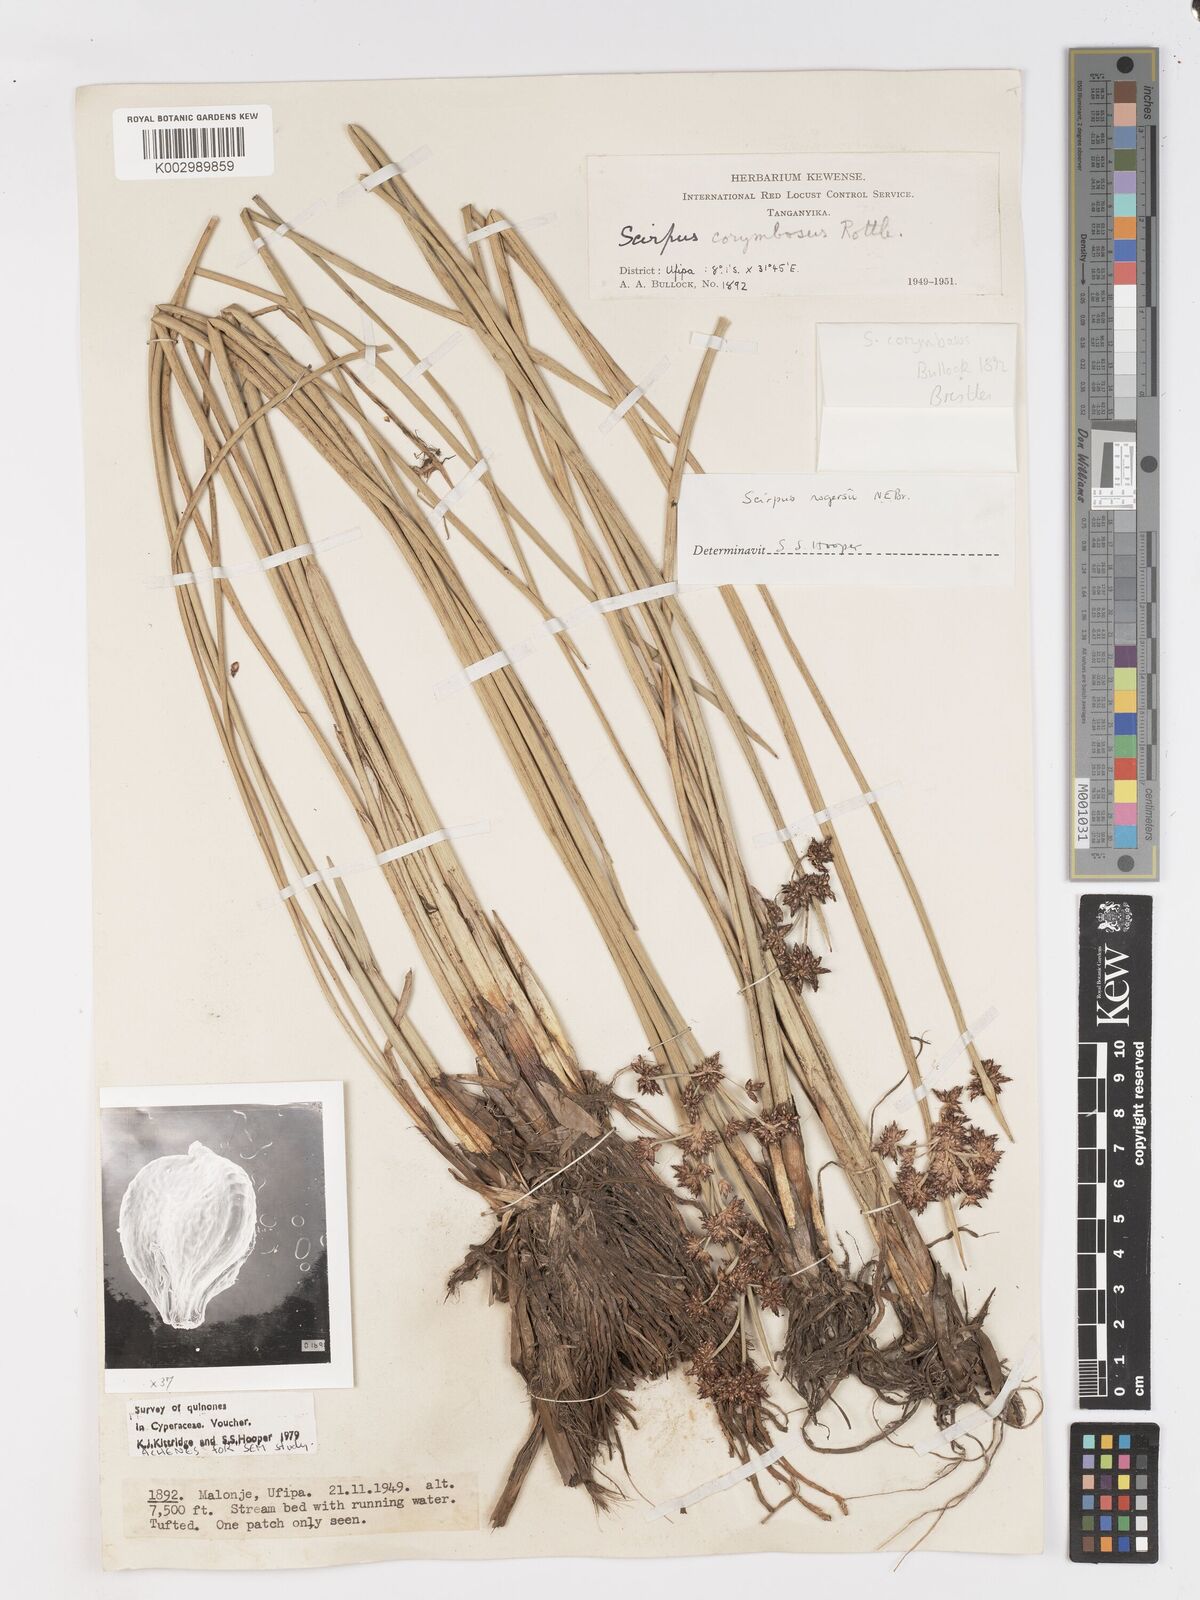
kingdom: Plantae
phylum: Tracheophyta
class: Liliopsida
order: Poales
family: Cyperaceae
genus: Schoenoplectiella
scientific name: Schoenoplectiella rogersii
